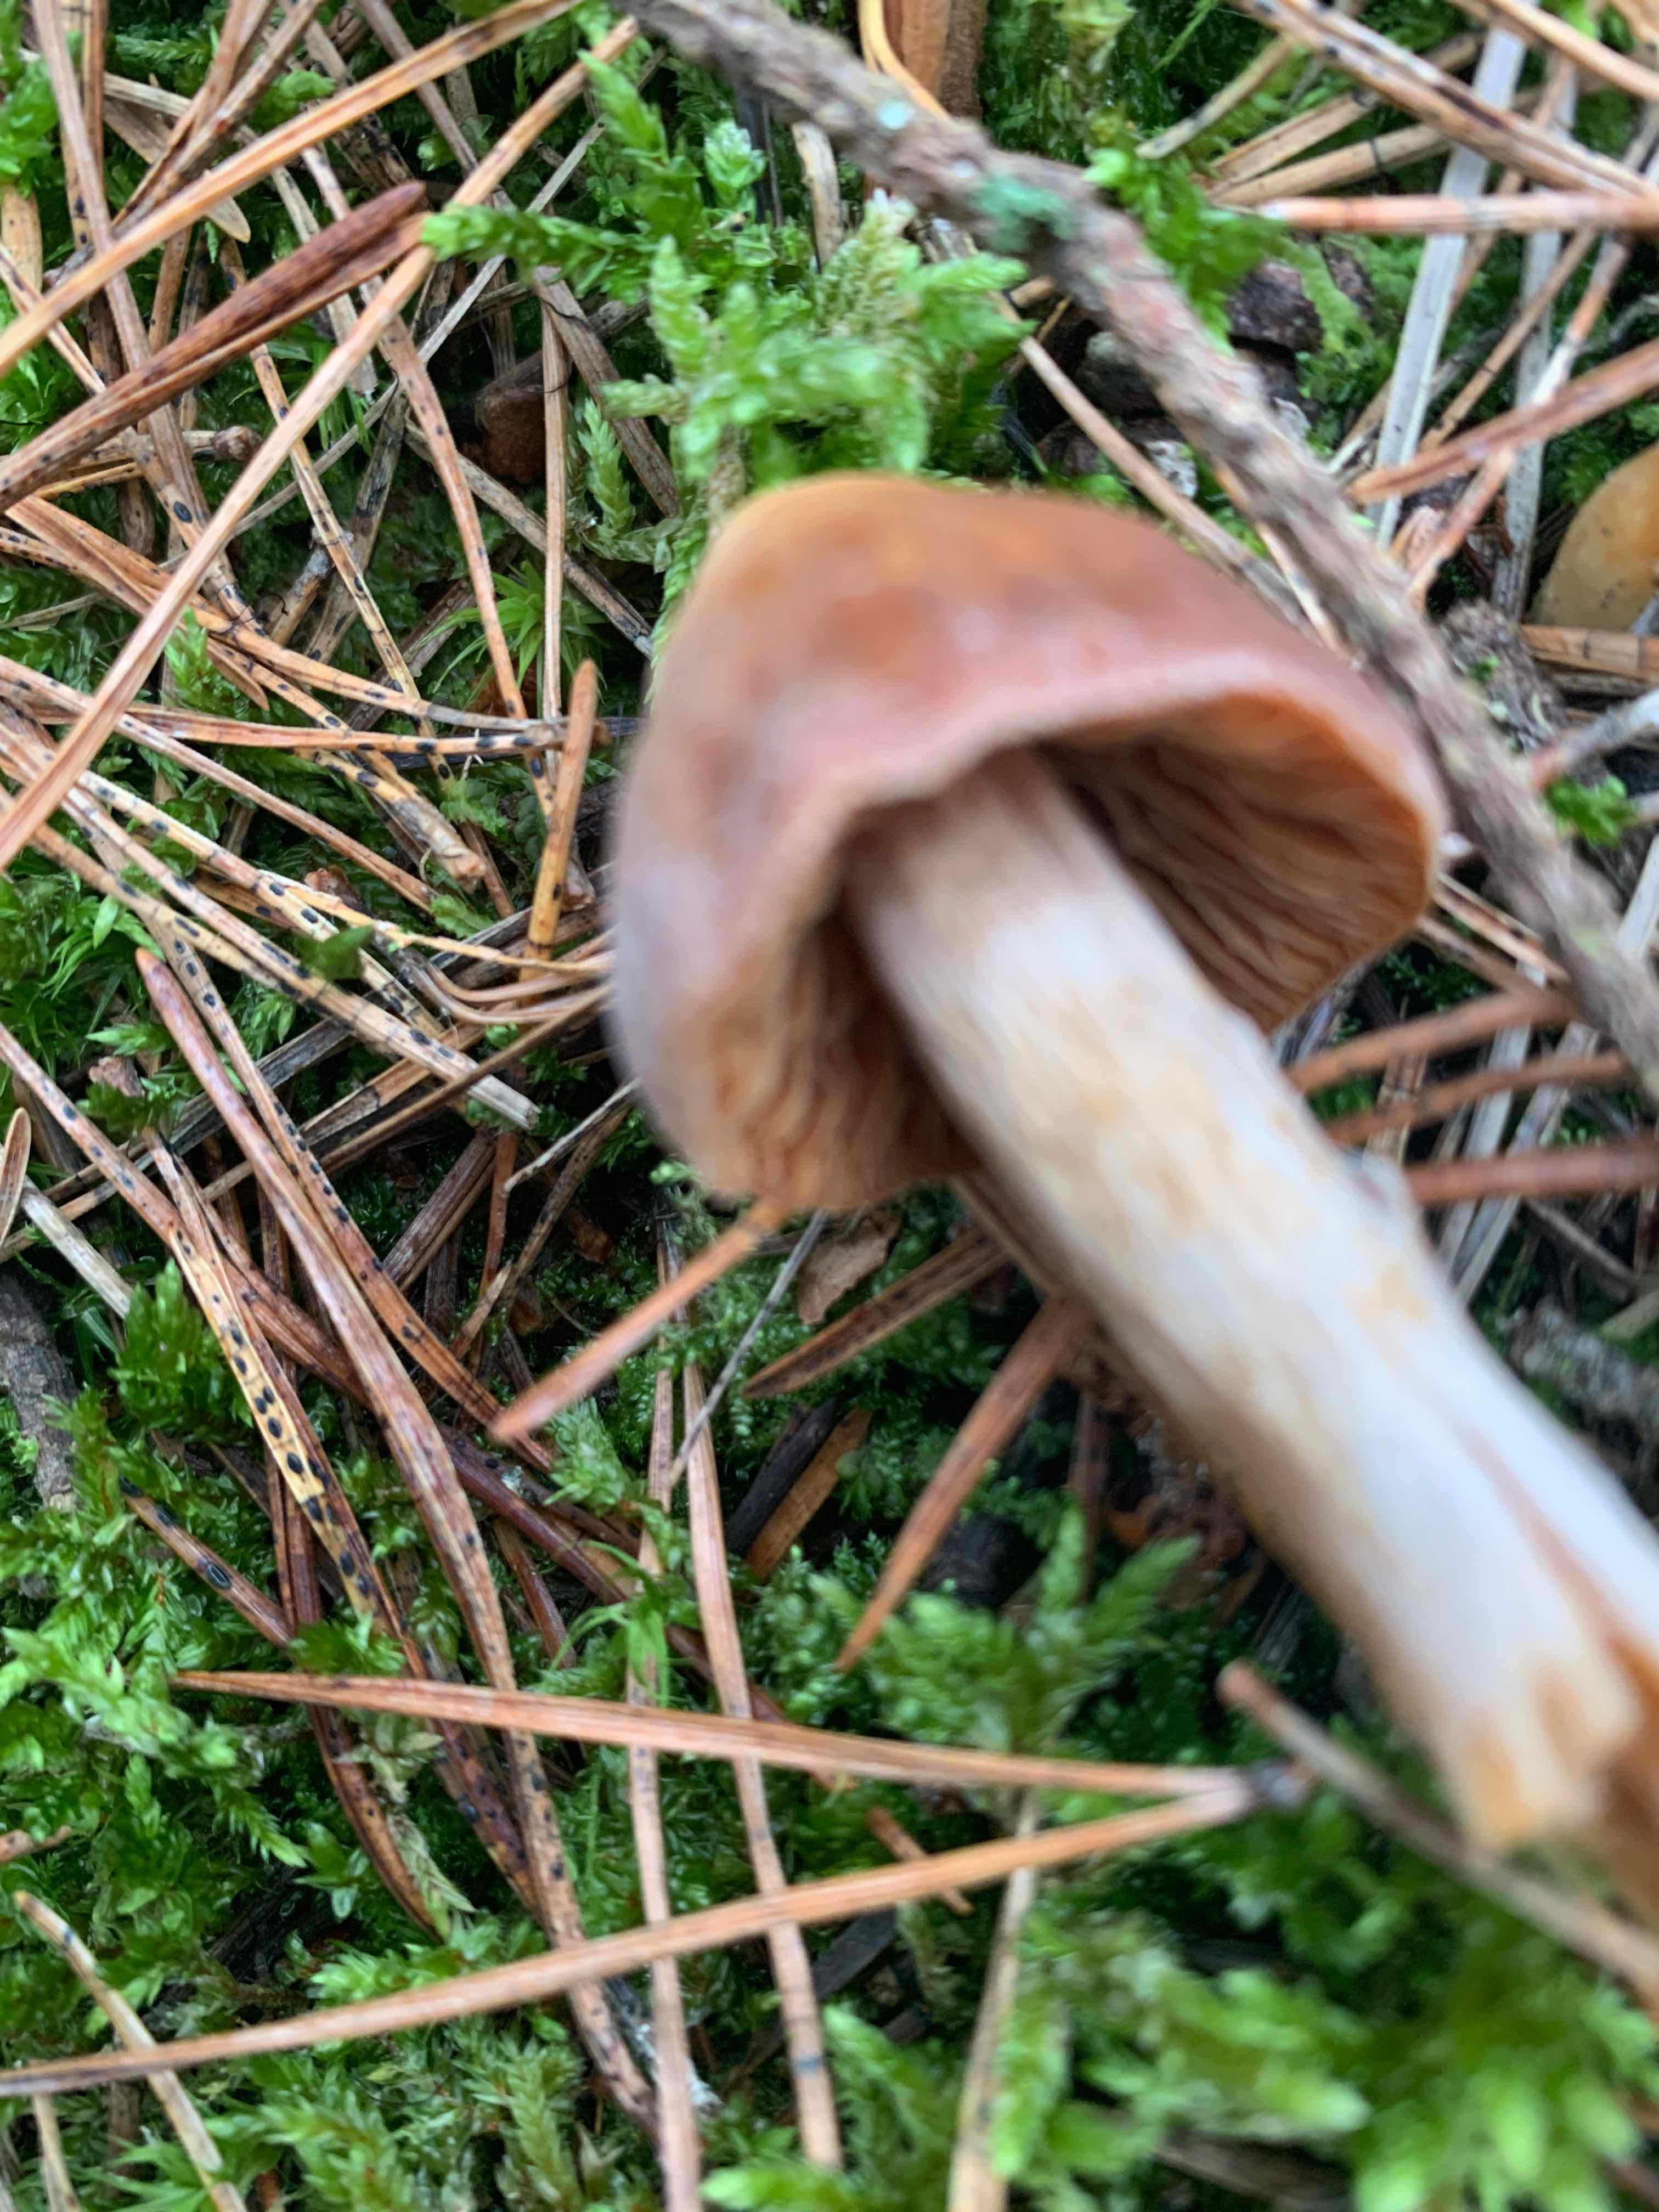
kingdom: Fungi
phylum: Ascomycota
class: Leotiomycetes
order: Rhytismatales
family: Rhytismataceae
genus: Lophodermium
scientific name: Lophodermium pinastri
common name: fyrre-fureplet
